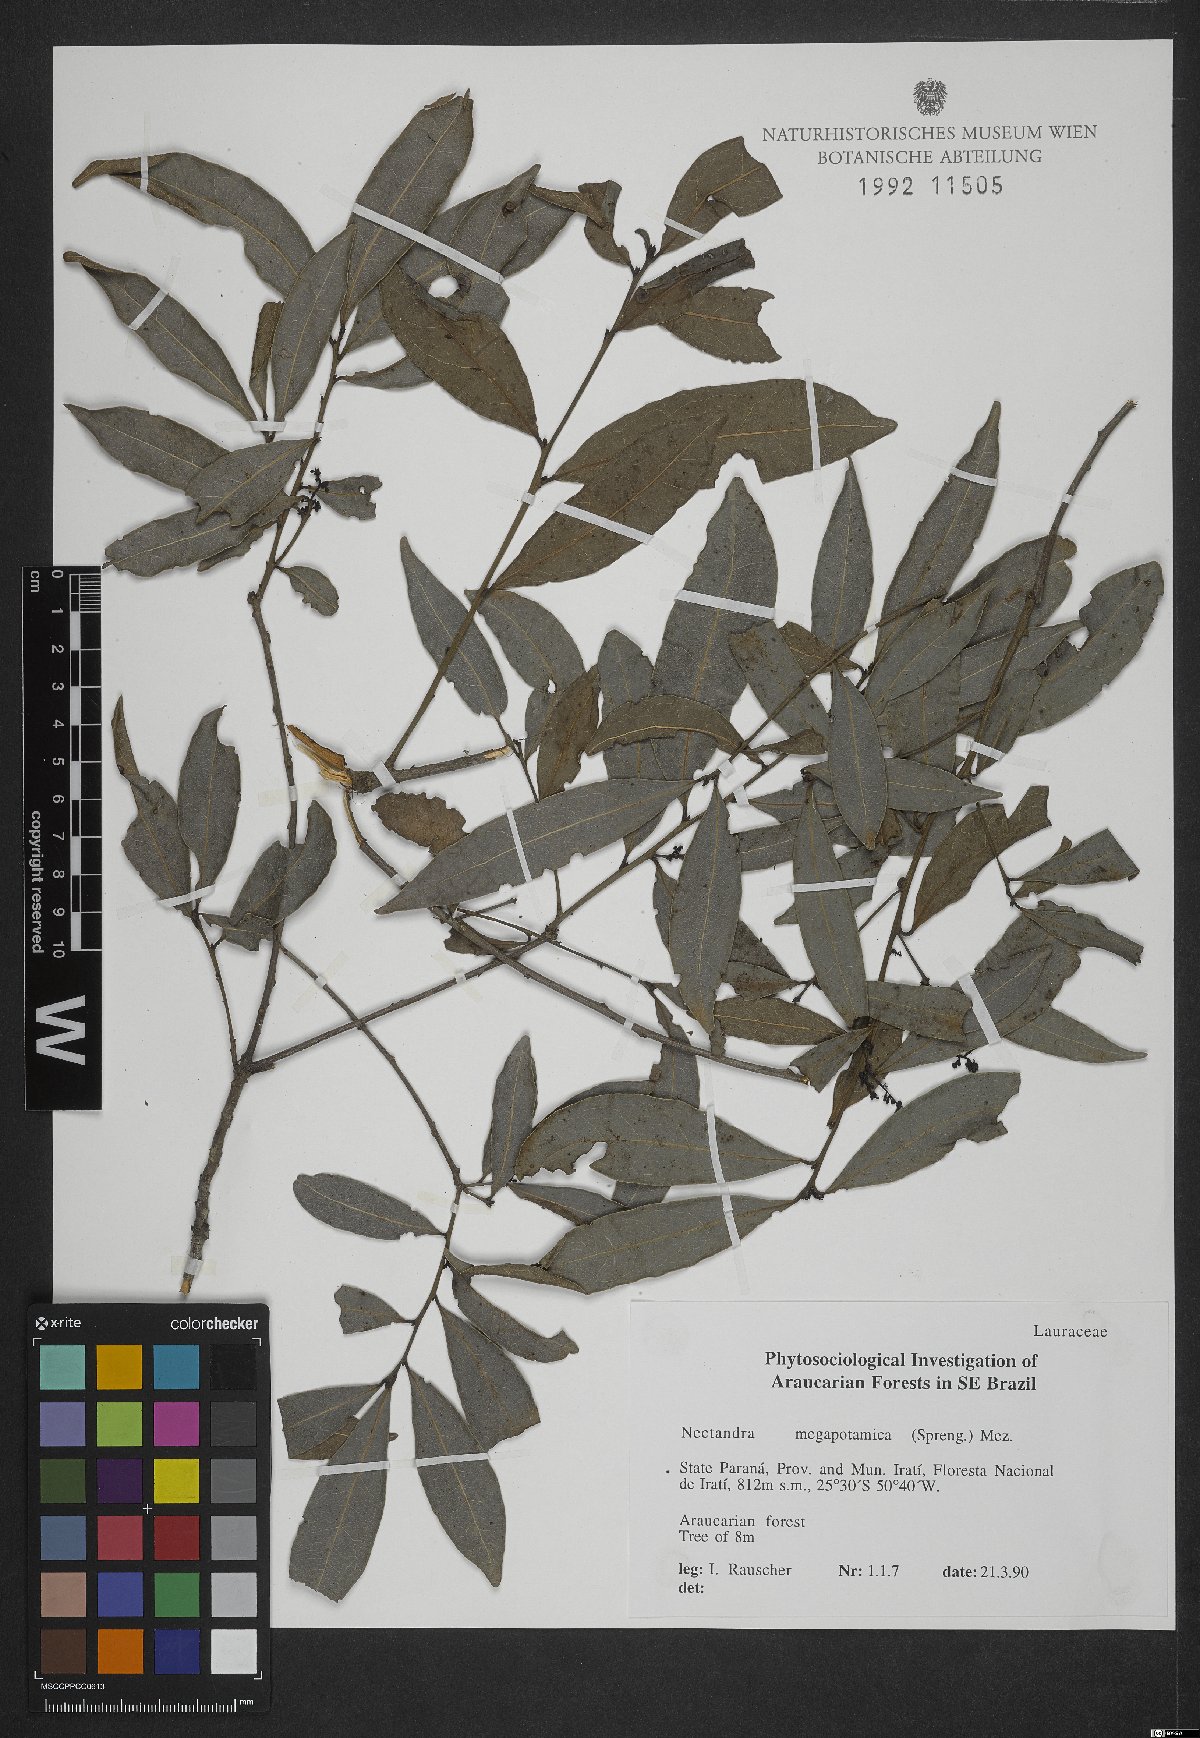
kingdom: Plantae
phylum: Tracheophyta
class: Magnoliopsida
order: Laurales
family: Lauraceae
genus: Nectandra
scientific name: Nectandra megapotamica
